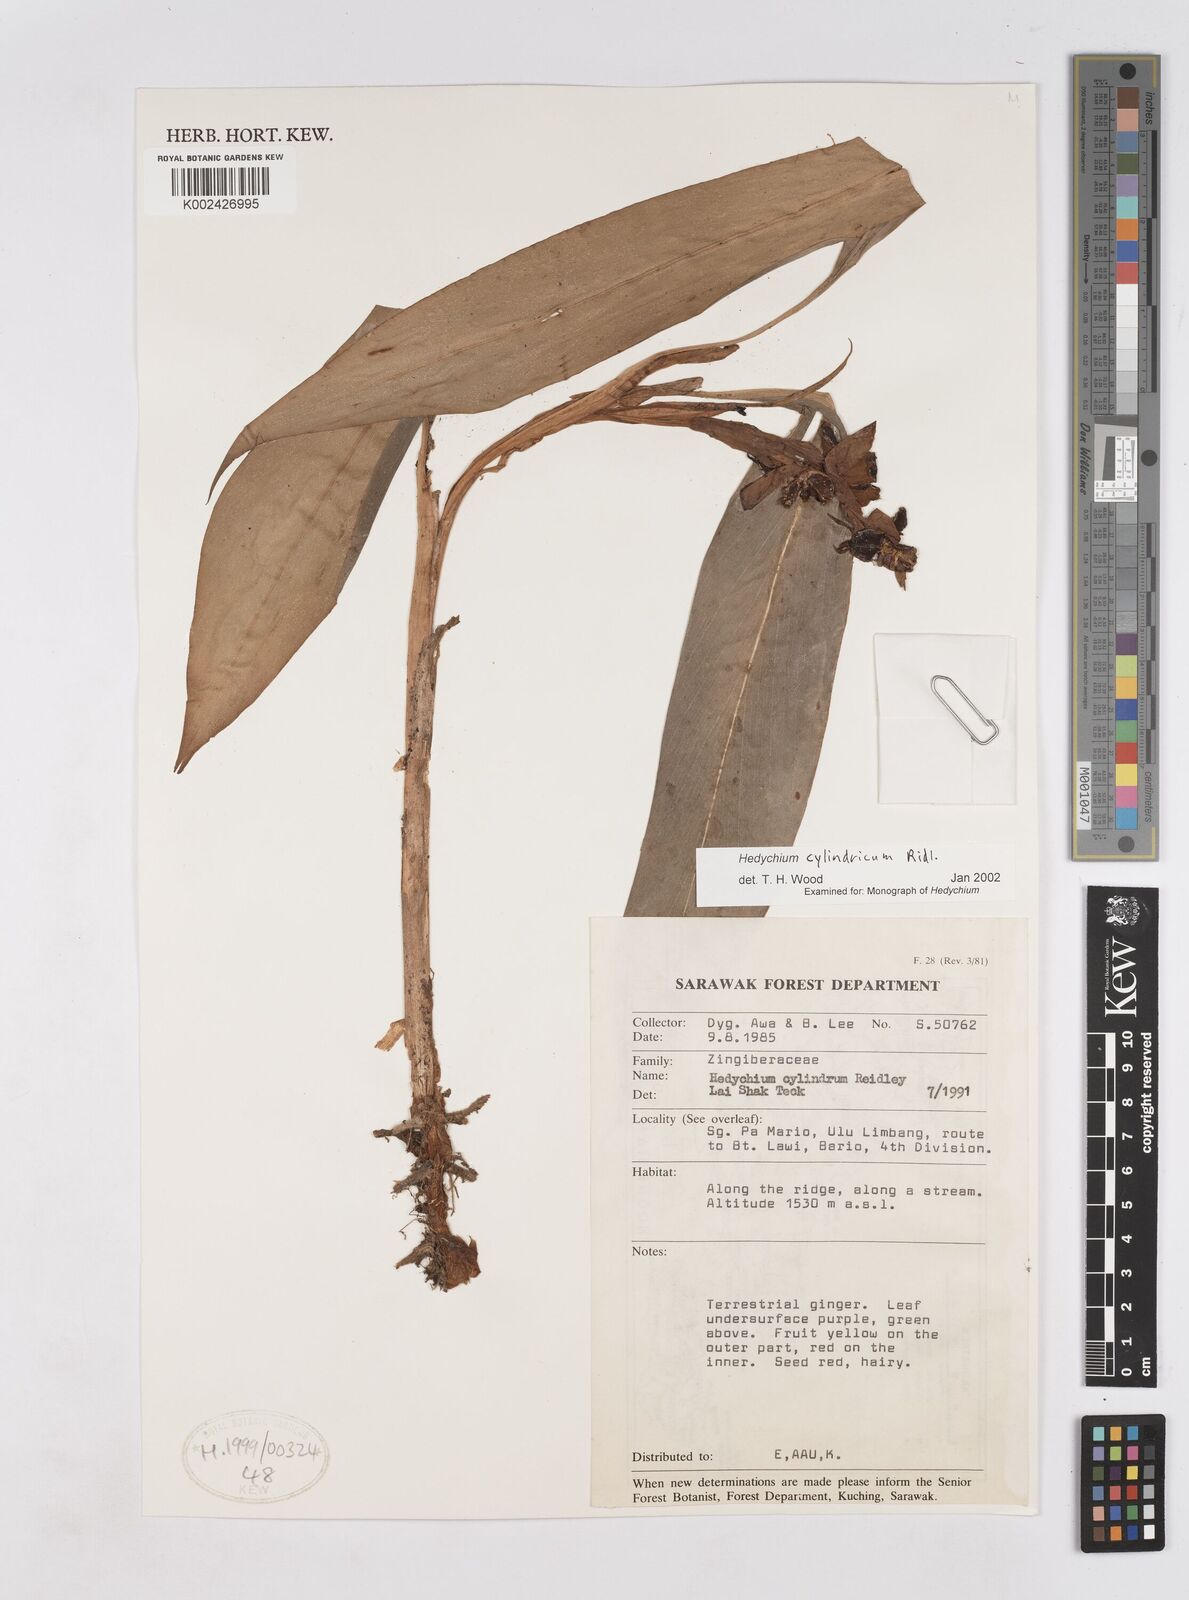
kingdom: Plantae
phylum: Tracheophyta
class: Liliopsida
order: Zingiberales
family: Zingiberaceae
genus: Hedychium
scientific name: Hedychium cylindricum
